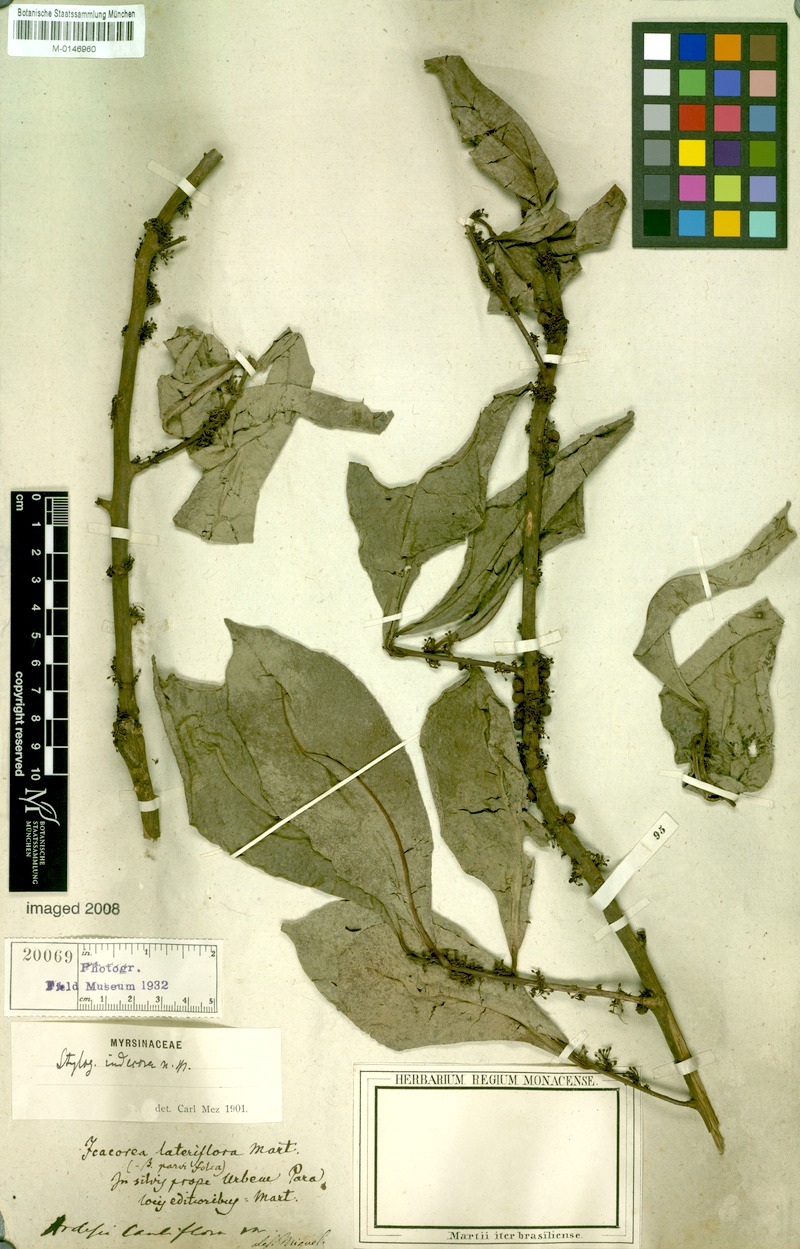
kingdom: Plantae
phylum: Tracheophyta
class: Magnoliopsida
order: Ericales
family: Primulaceae
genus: Stylogyne
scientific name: Stylogyne cauliflora
